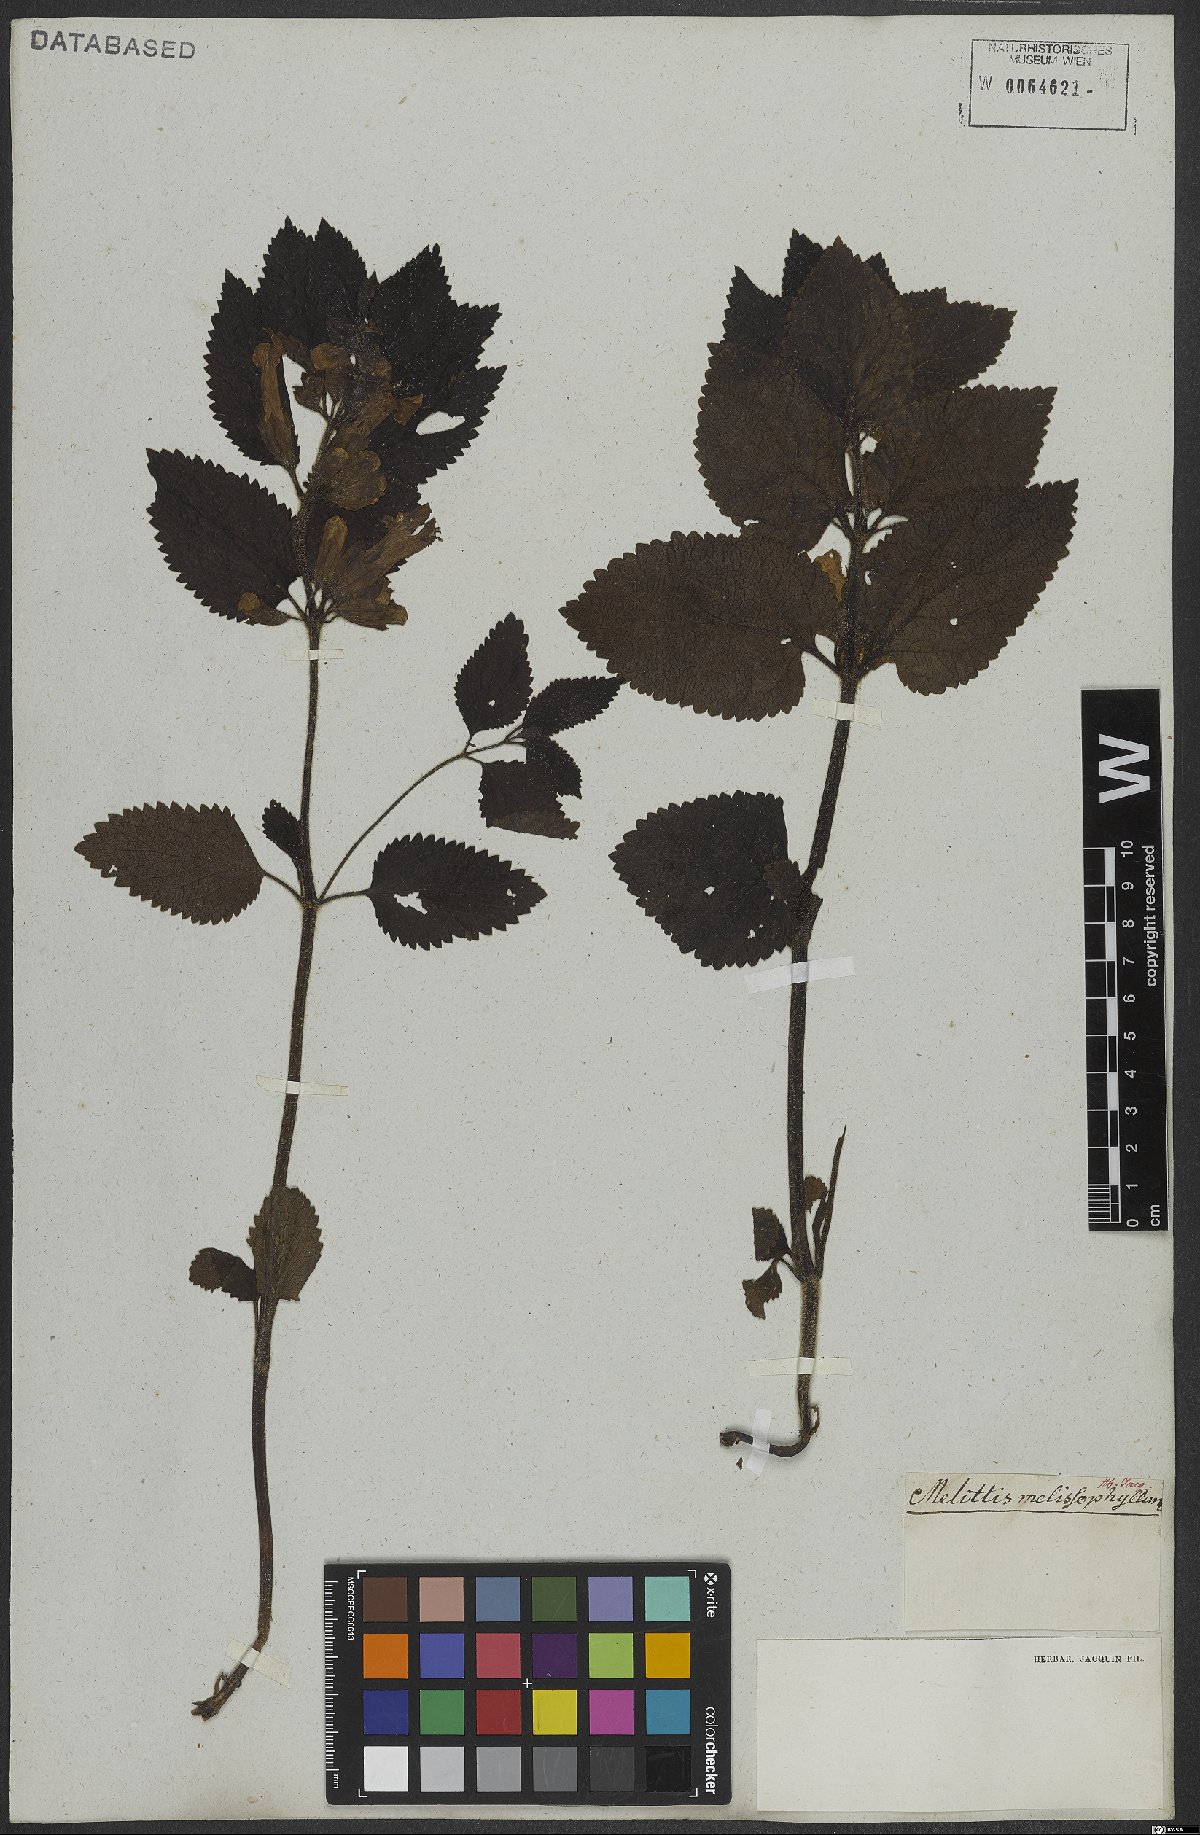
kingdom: Plantae
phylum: Tracheophyta
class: Magnoliopsida
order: Lamiales
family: Lamiaceae
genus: Melittis
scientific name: Melittis melissophyllum
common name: Bastard balm
